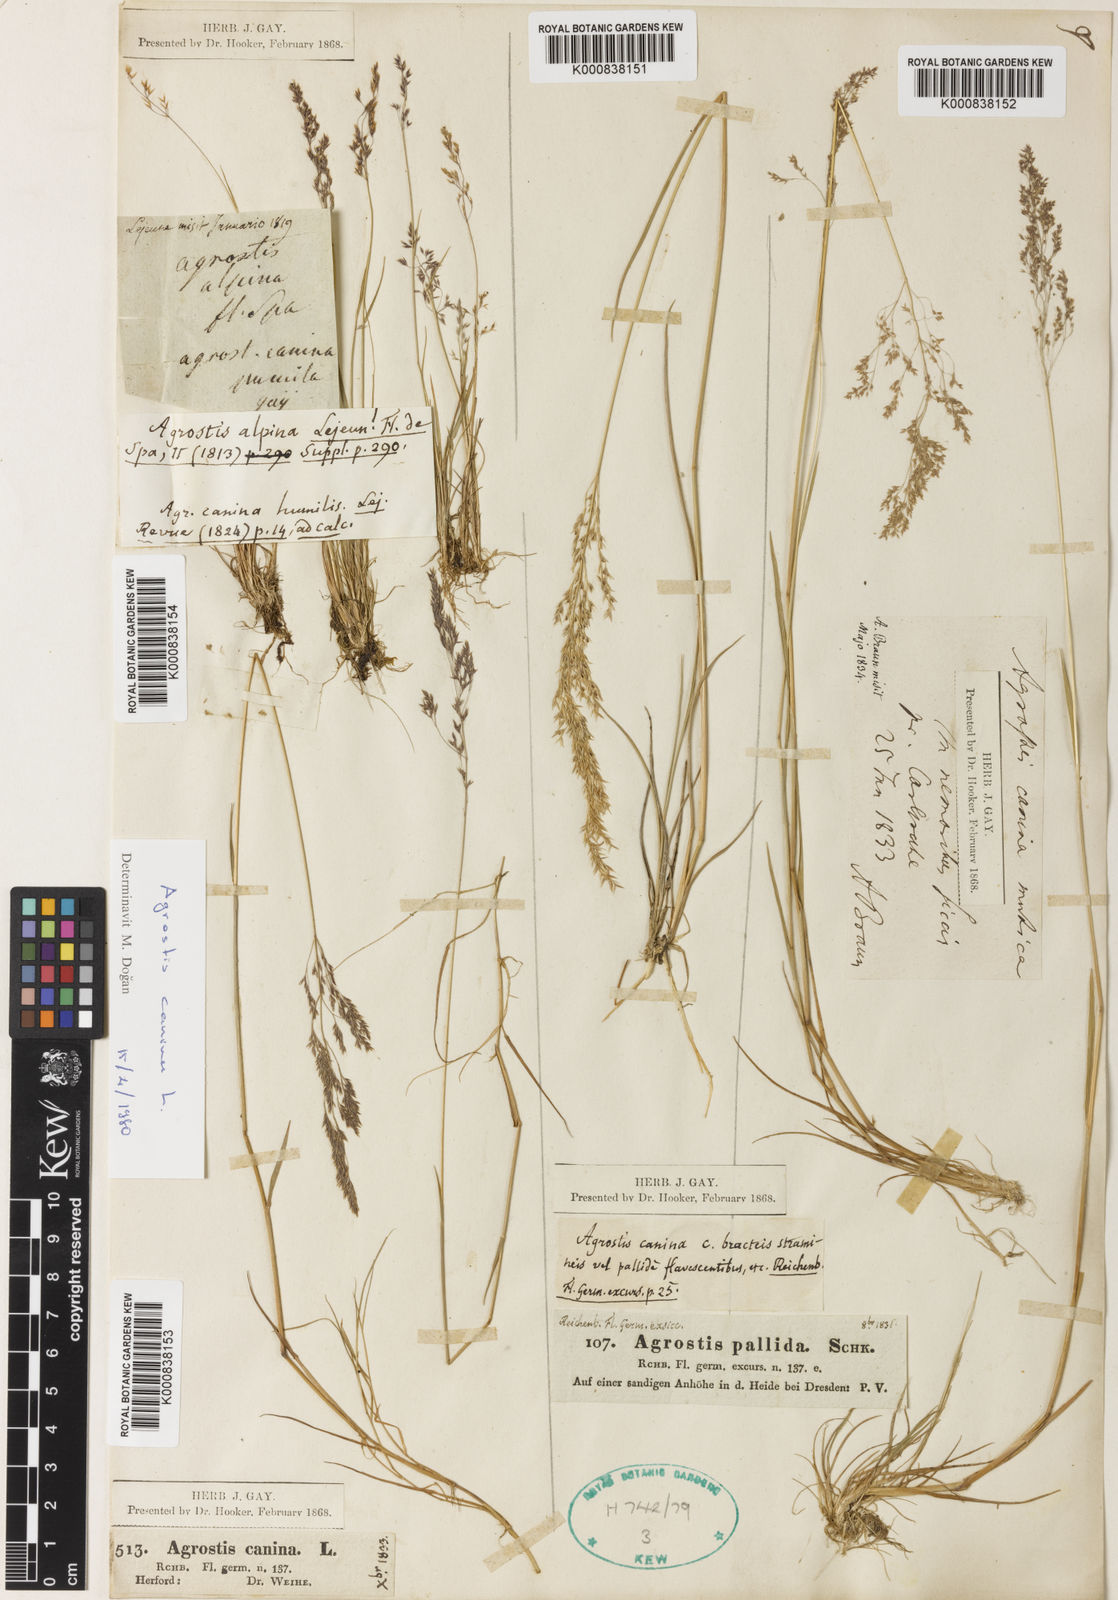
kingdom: Plantae
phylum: Tracheophyta
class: Liliopsida
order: Poales
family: Poaceae
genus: Agrostis
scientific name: Agrostis canina
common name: Velvet bent
